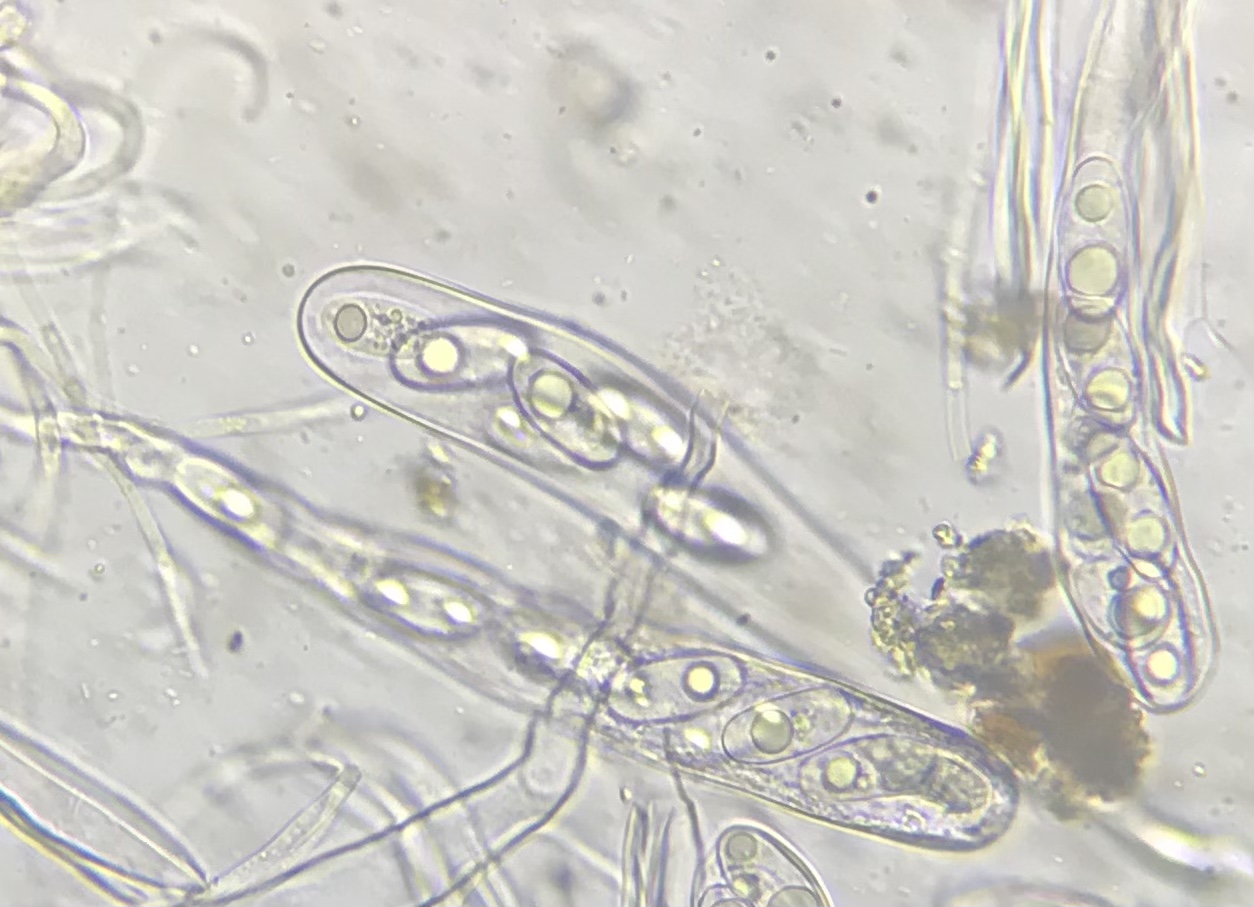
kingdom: Fungi
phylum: Ascomycota
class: Pezizomycetes
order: Pezizales
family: Pyronemataceae
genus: Octospora
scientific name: Octospora musci-muralis
